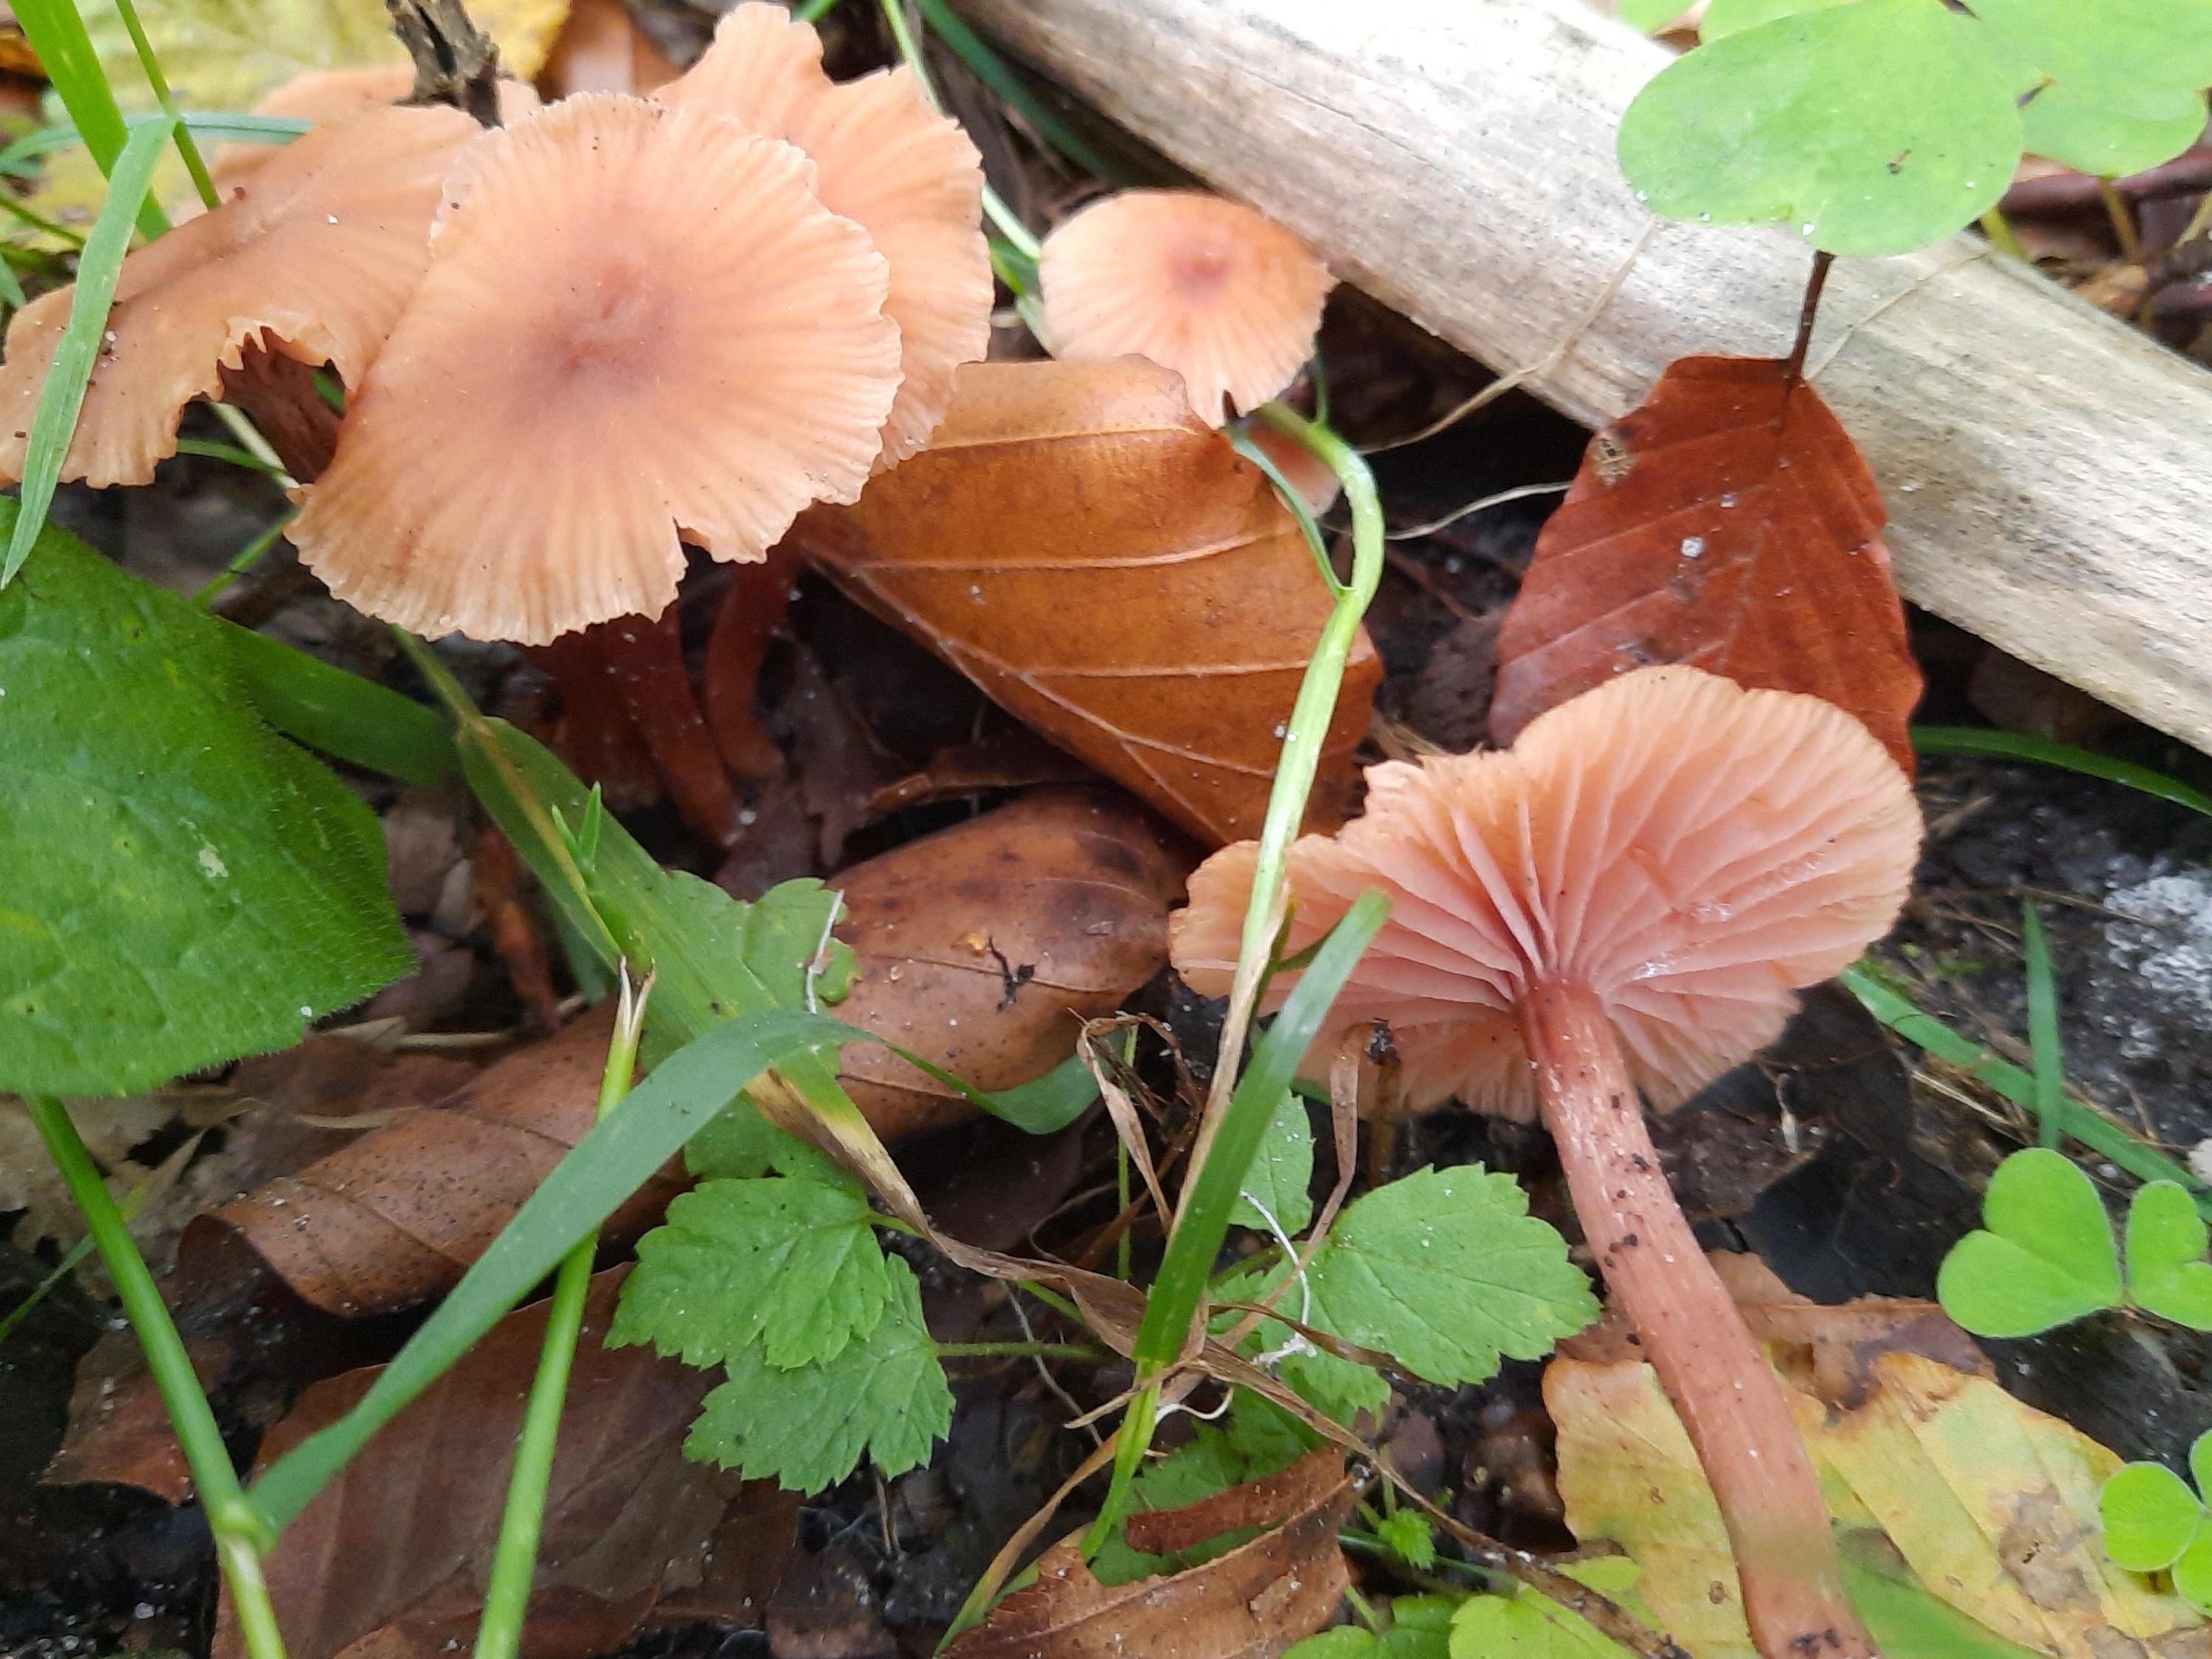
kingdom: Fungi
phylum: Basidiomycota
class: Agaricomycetes
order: Agaricales
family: Hydnangiaceae
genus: Laccaria
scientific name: Laccaria laccata
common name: rød ametysthat
